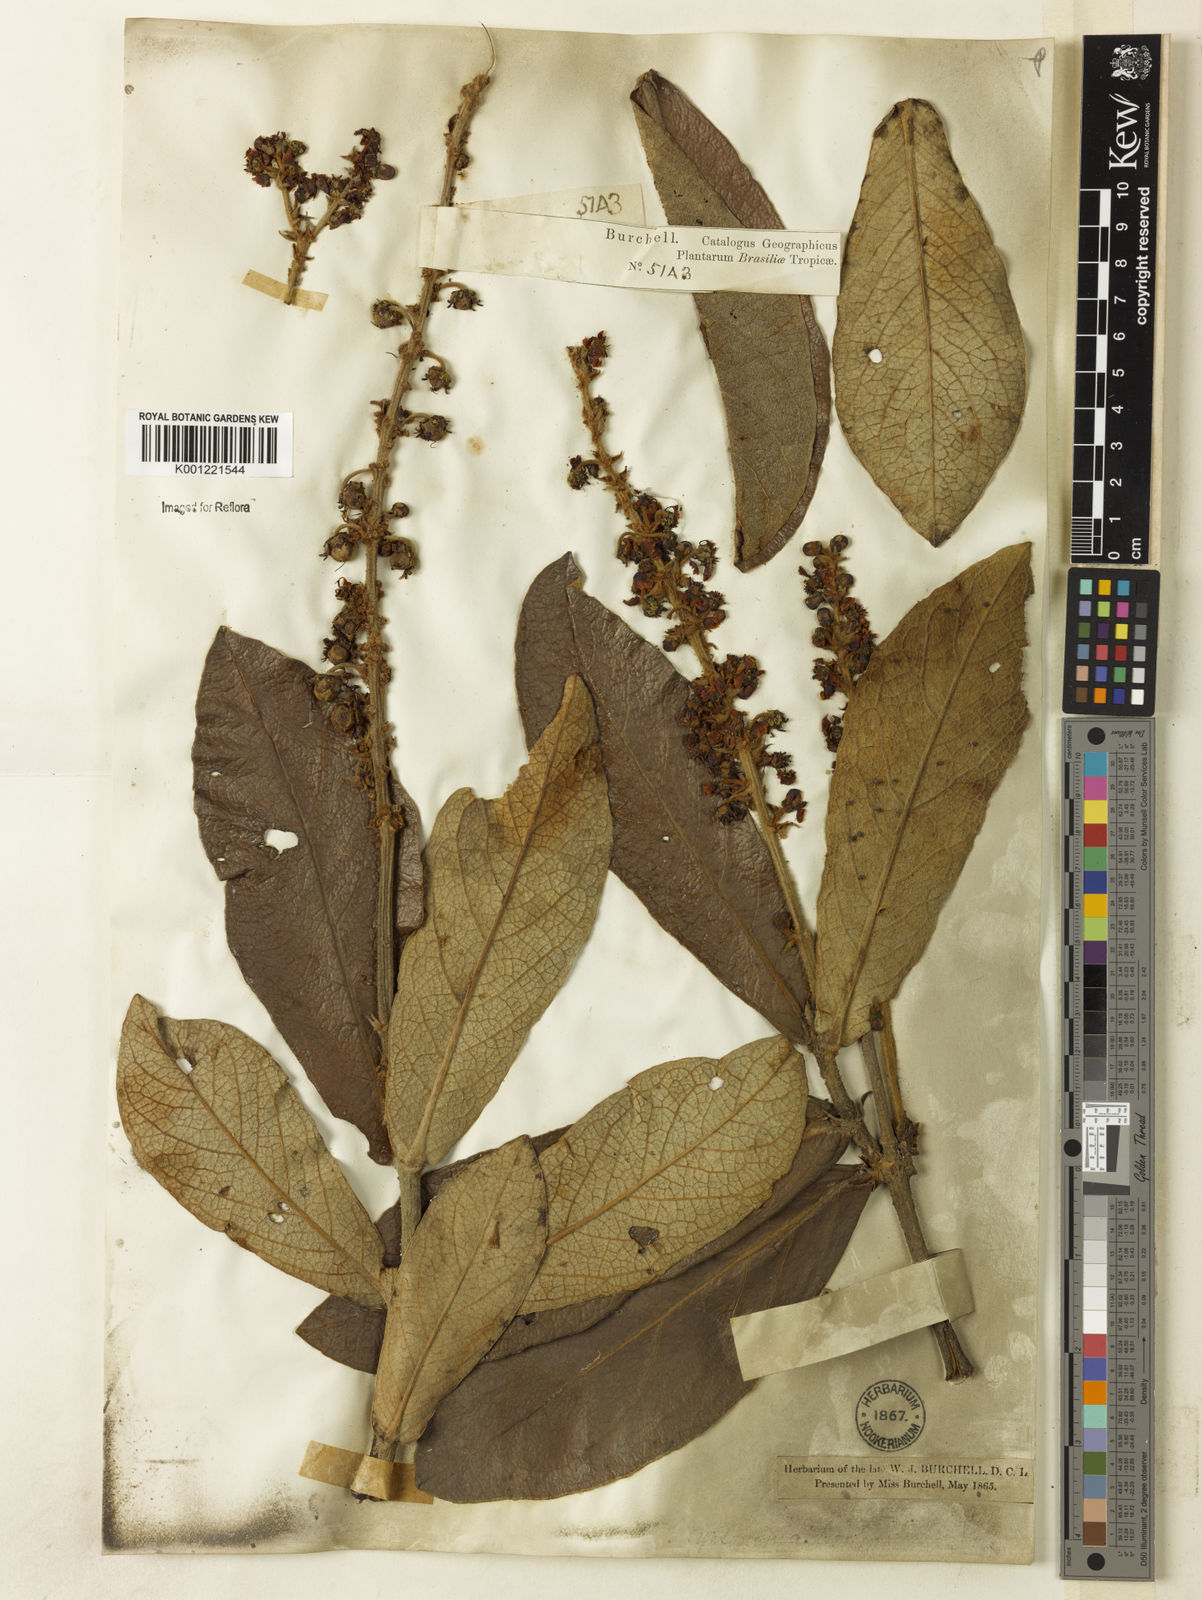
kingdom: Plantae
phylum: Tracheophyta
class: Magnoliopsida
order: Malpighiales
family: Malpighiaceae
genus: Byrsonima
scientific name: Byrsonima pachyphylla
